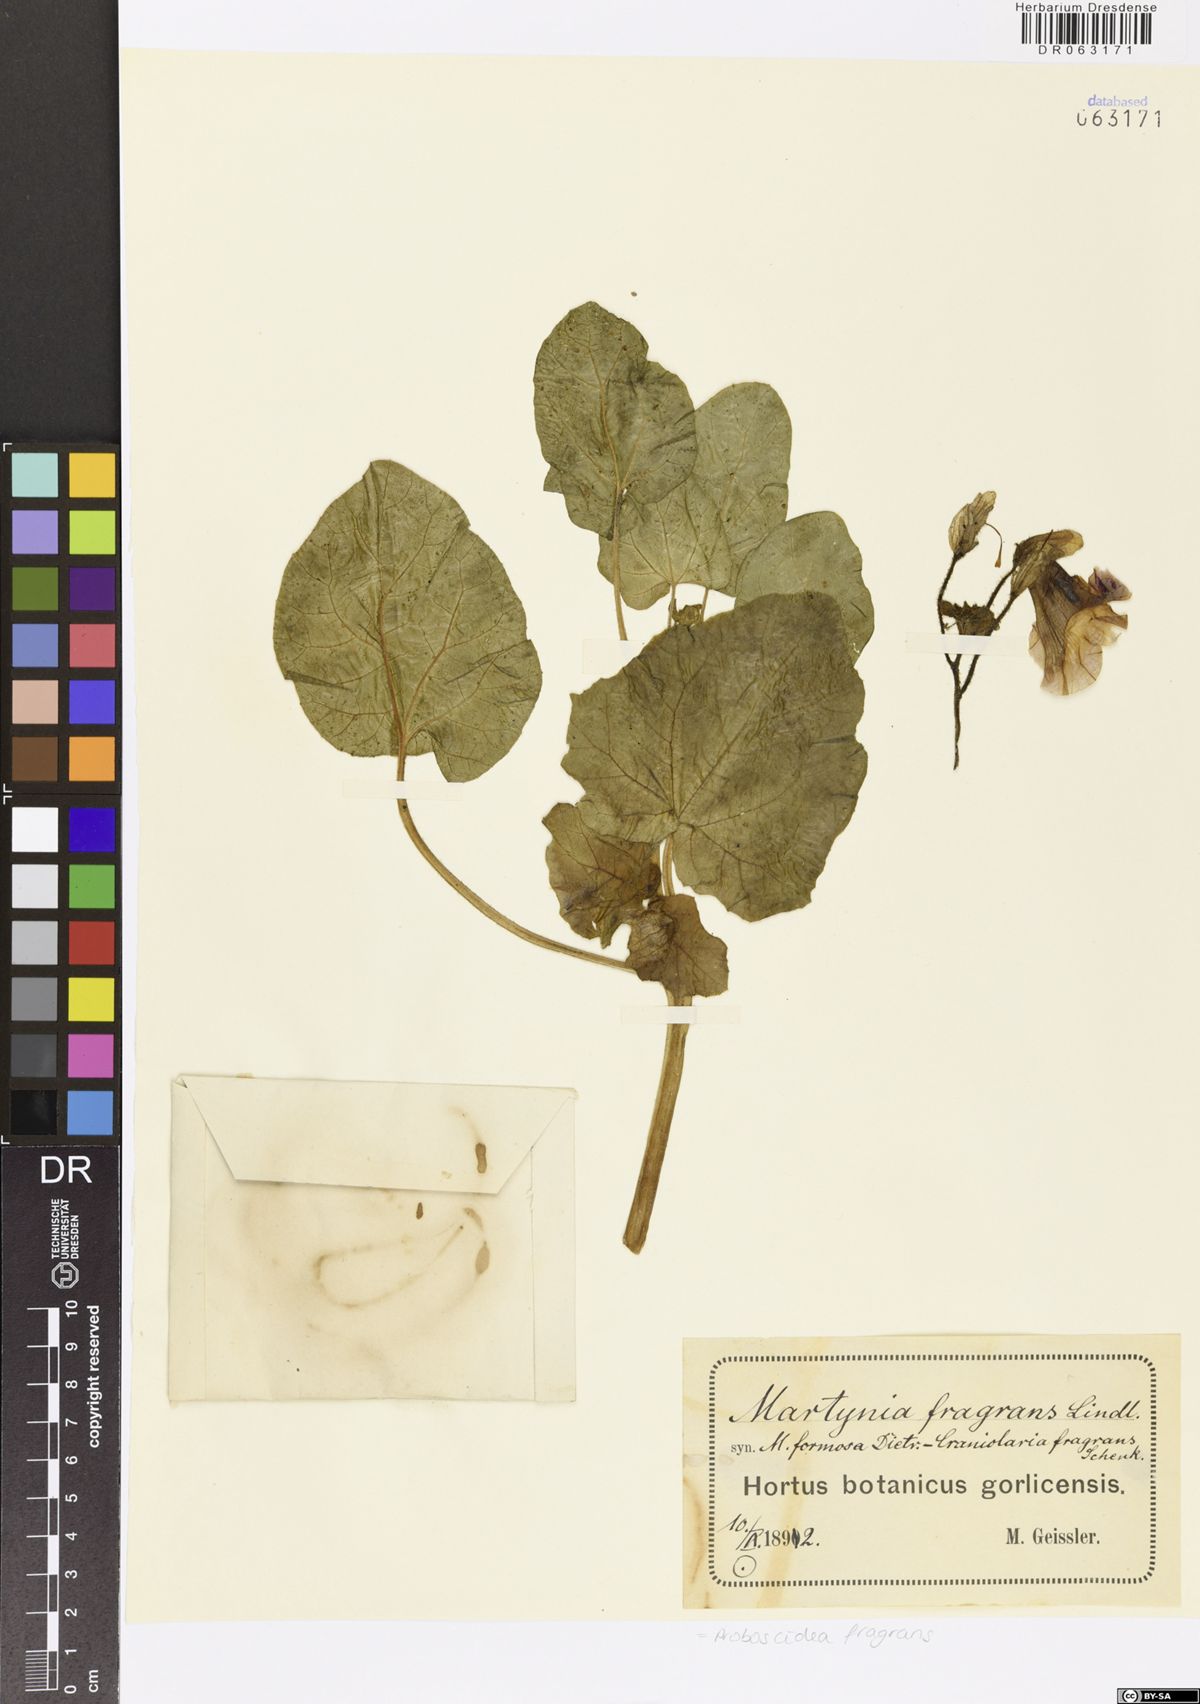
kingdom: Plantae
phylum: Tracheophyta
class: Magnoliopsida
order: Lamiales
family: Martyniaceae
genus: Proboscidea
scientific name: Proboscidea louisianica
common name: Elephant tusks
